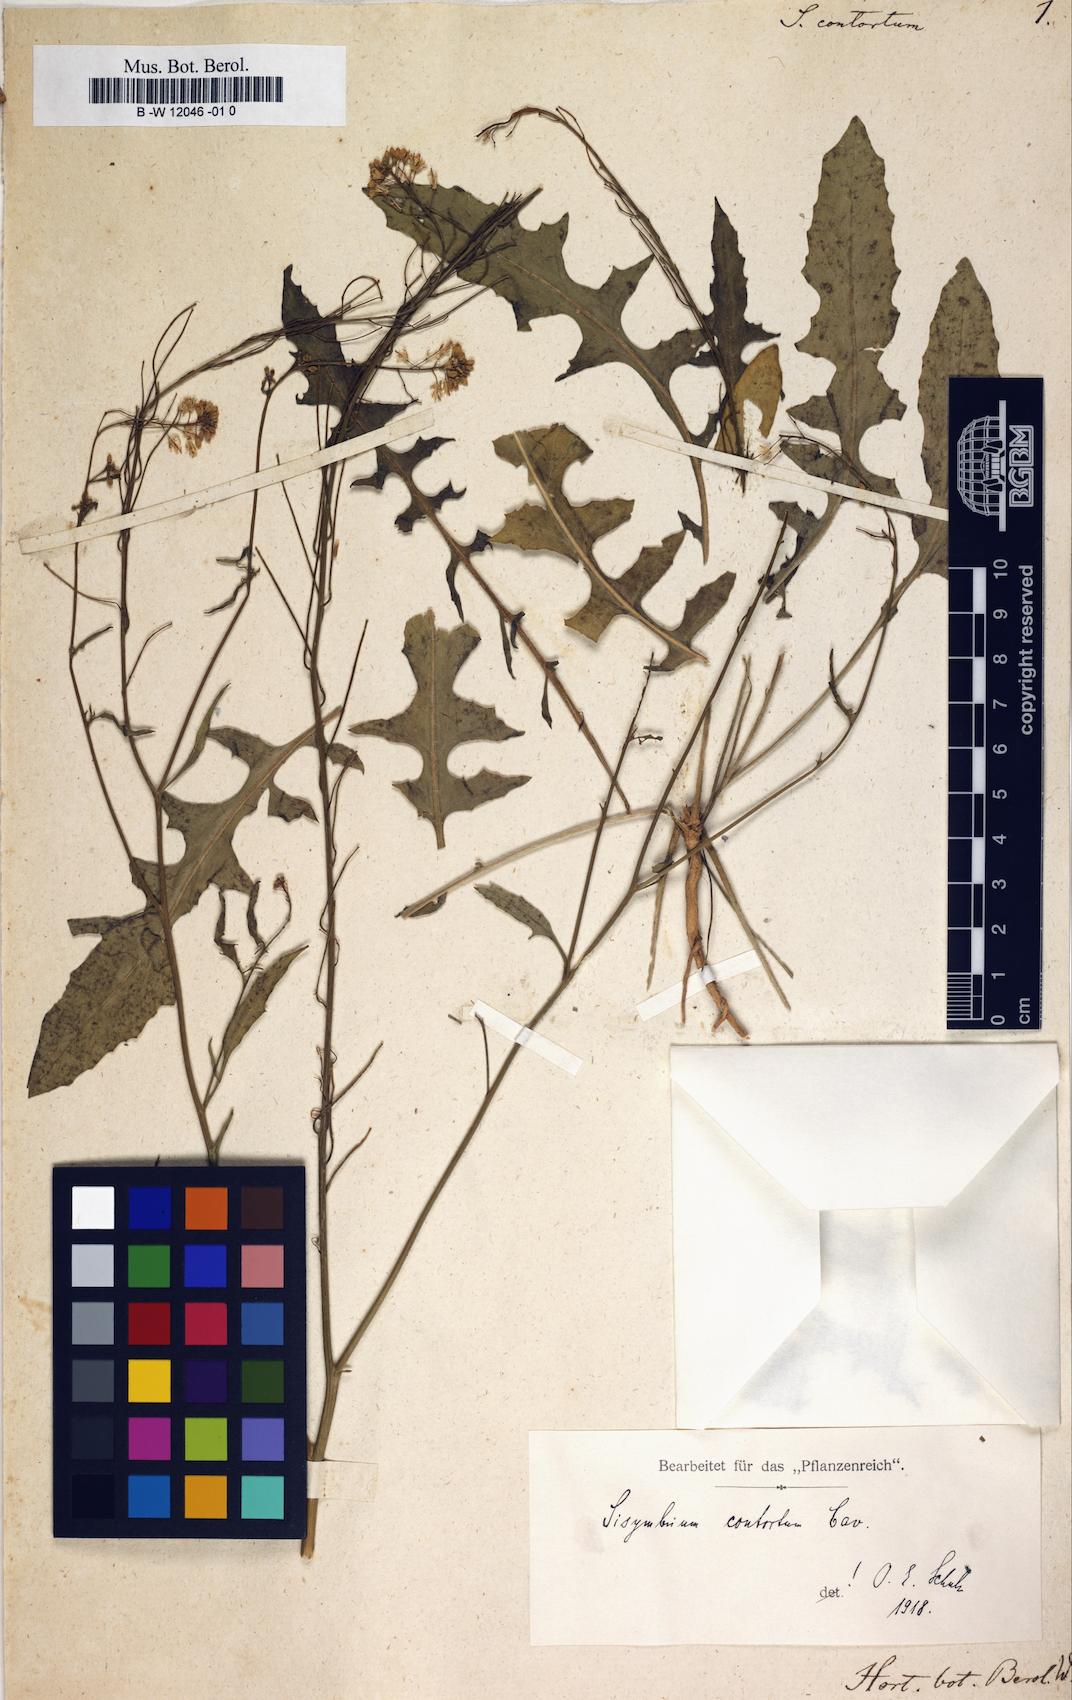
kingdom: Plantae
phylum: Tracheophyta
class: Magnoliopsida
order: Brassicales
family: Brassicaceae
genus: Sisymbrium
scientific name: Sisymbrium hispanicum
